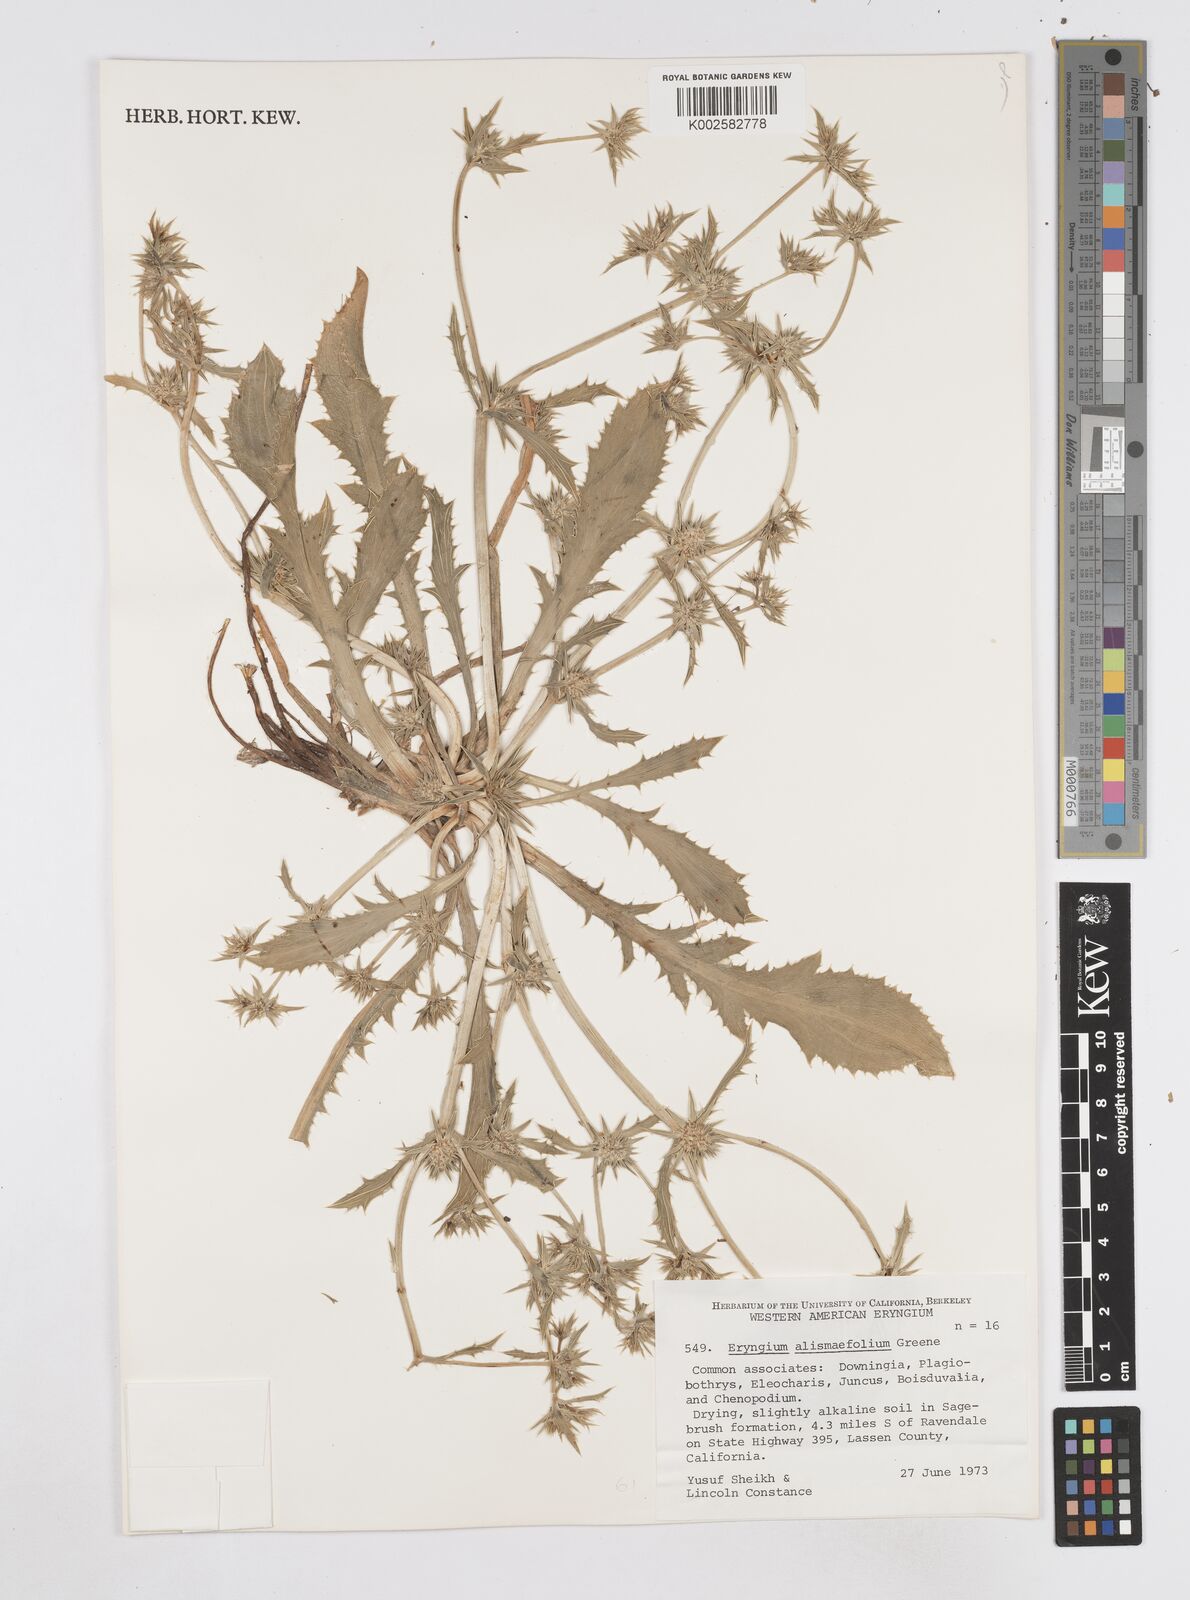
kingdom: Plantae
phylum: Tracheophyta
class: Magnoliopsida
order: Apiales
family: Apiaceae
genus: Eryngium
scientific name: Eryngium alismifolium
